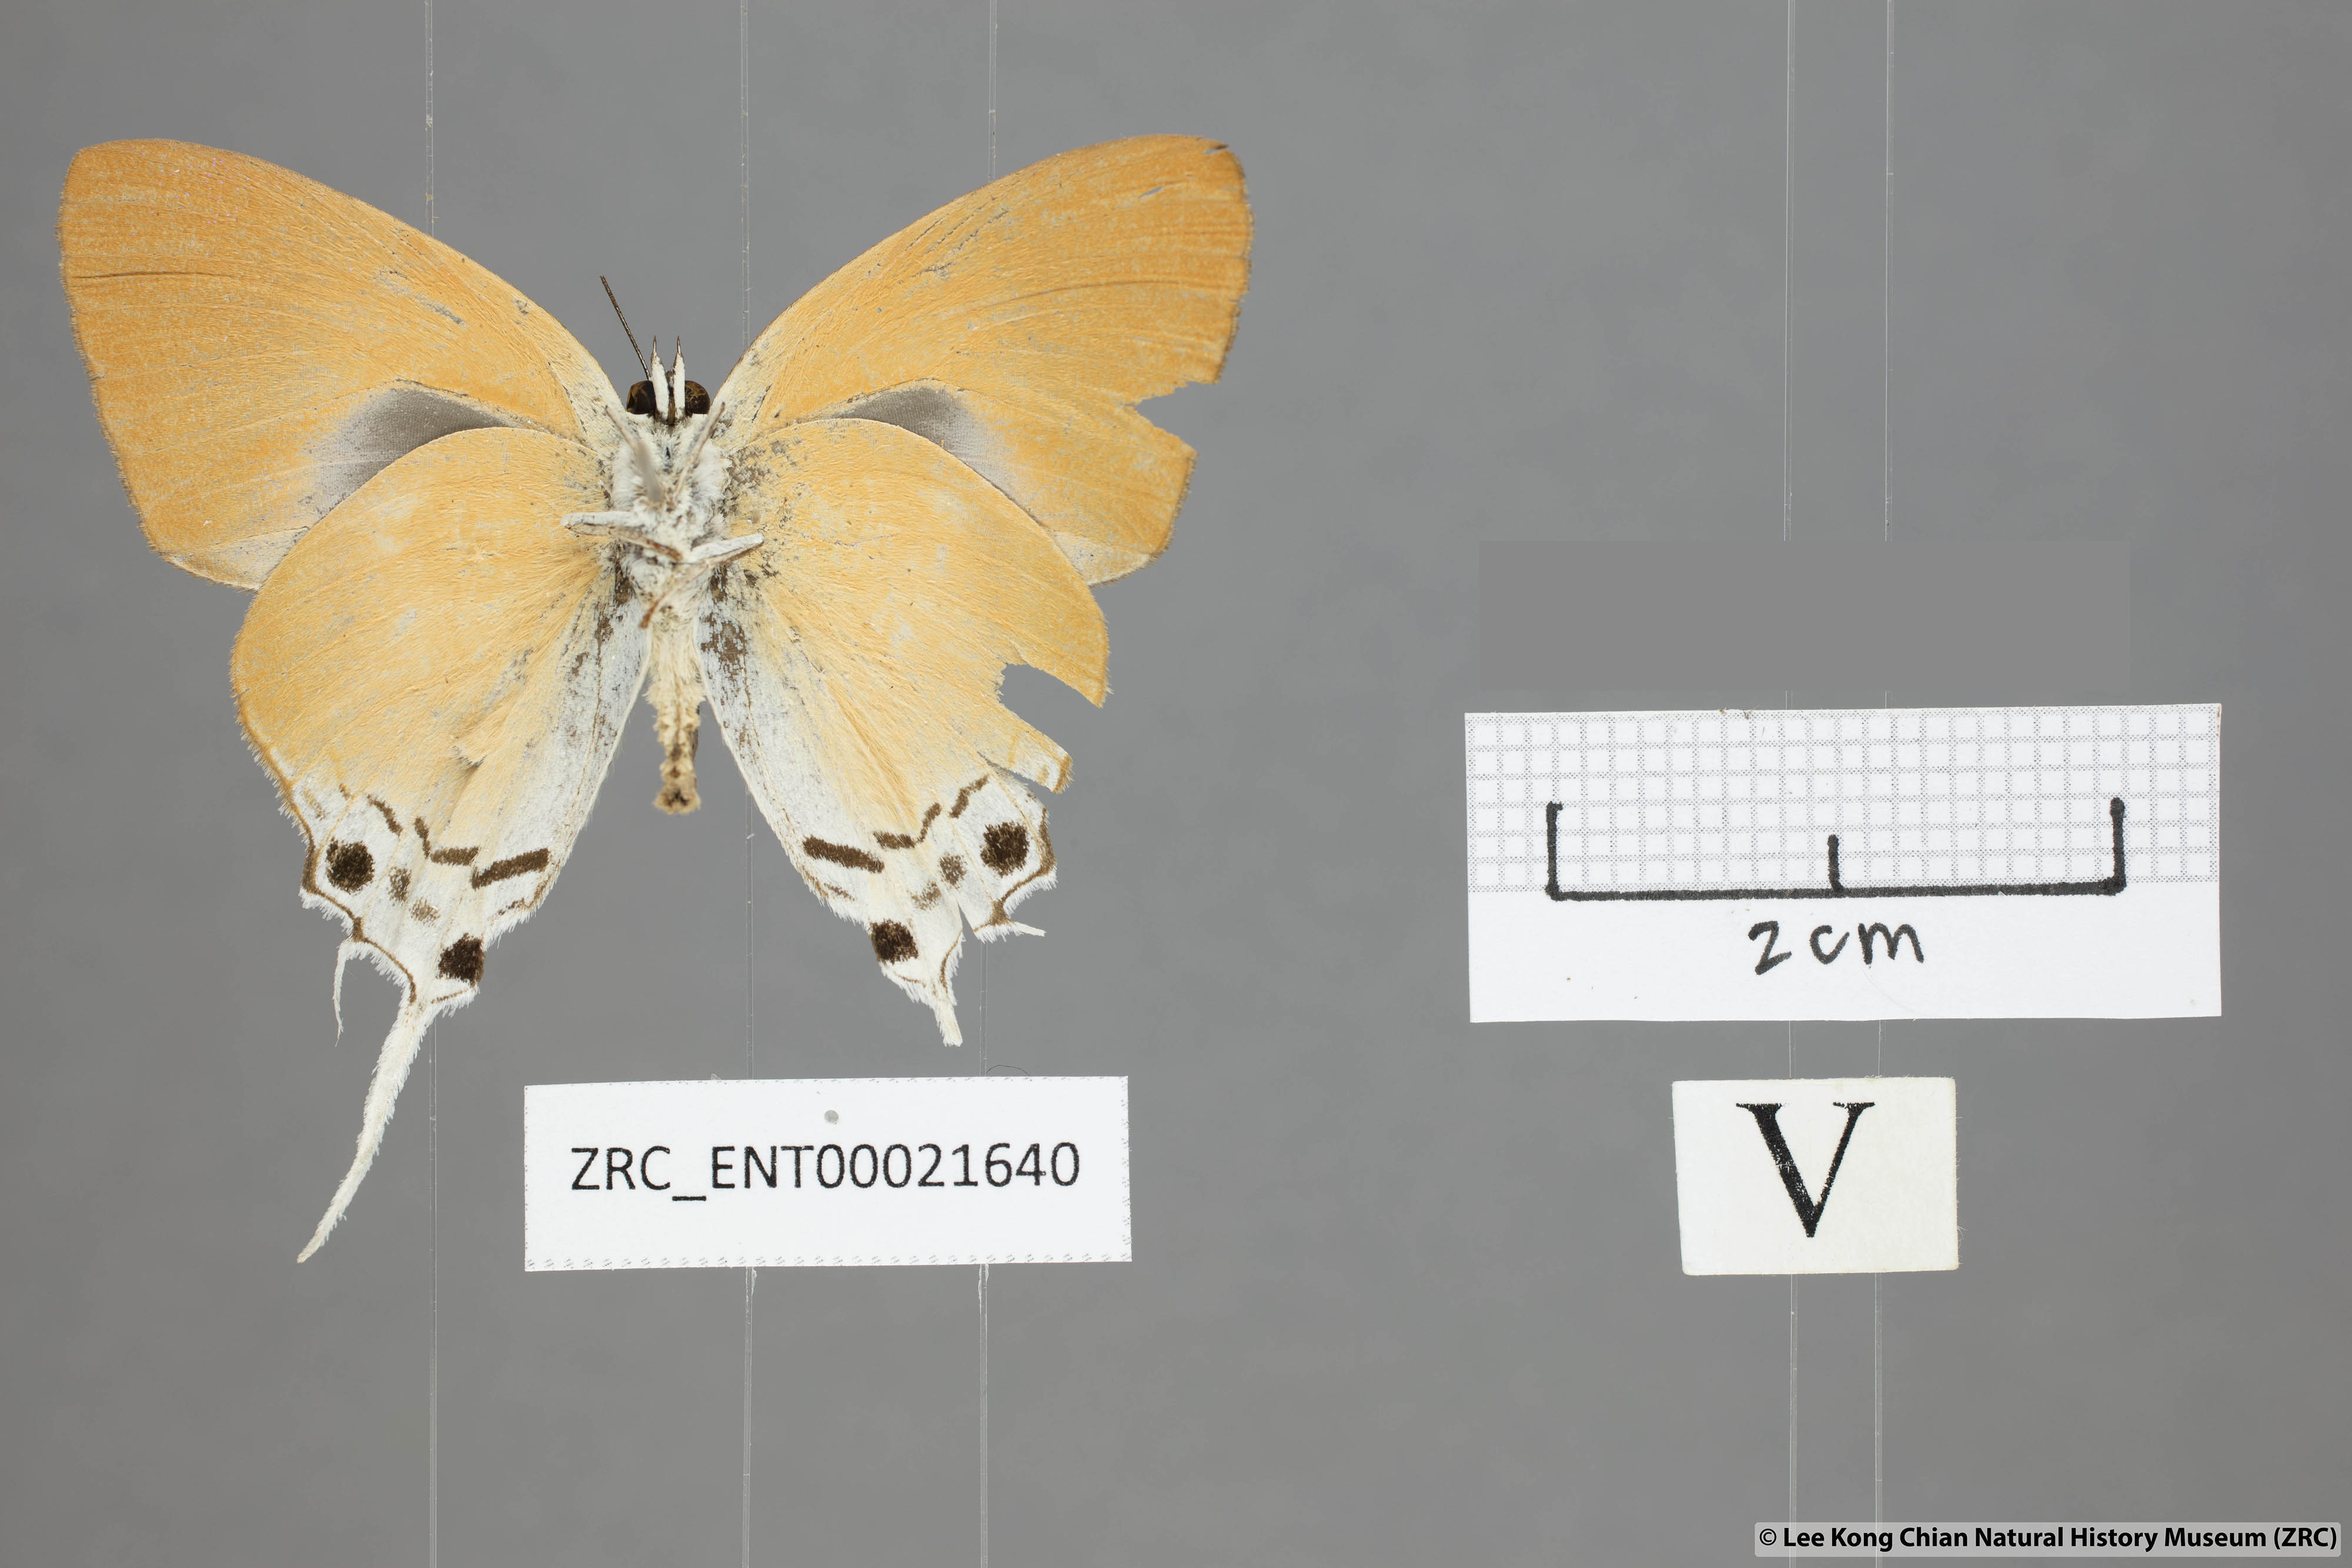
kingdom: Animalia
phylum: Arthropoda
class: Insecta
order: Lepidoptera
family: Lycaenidae
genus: Manto
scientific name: Manto hypoleuca
